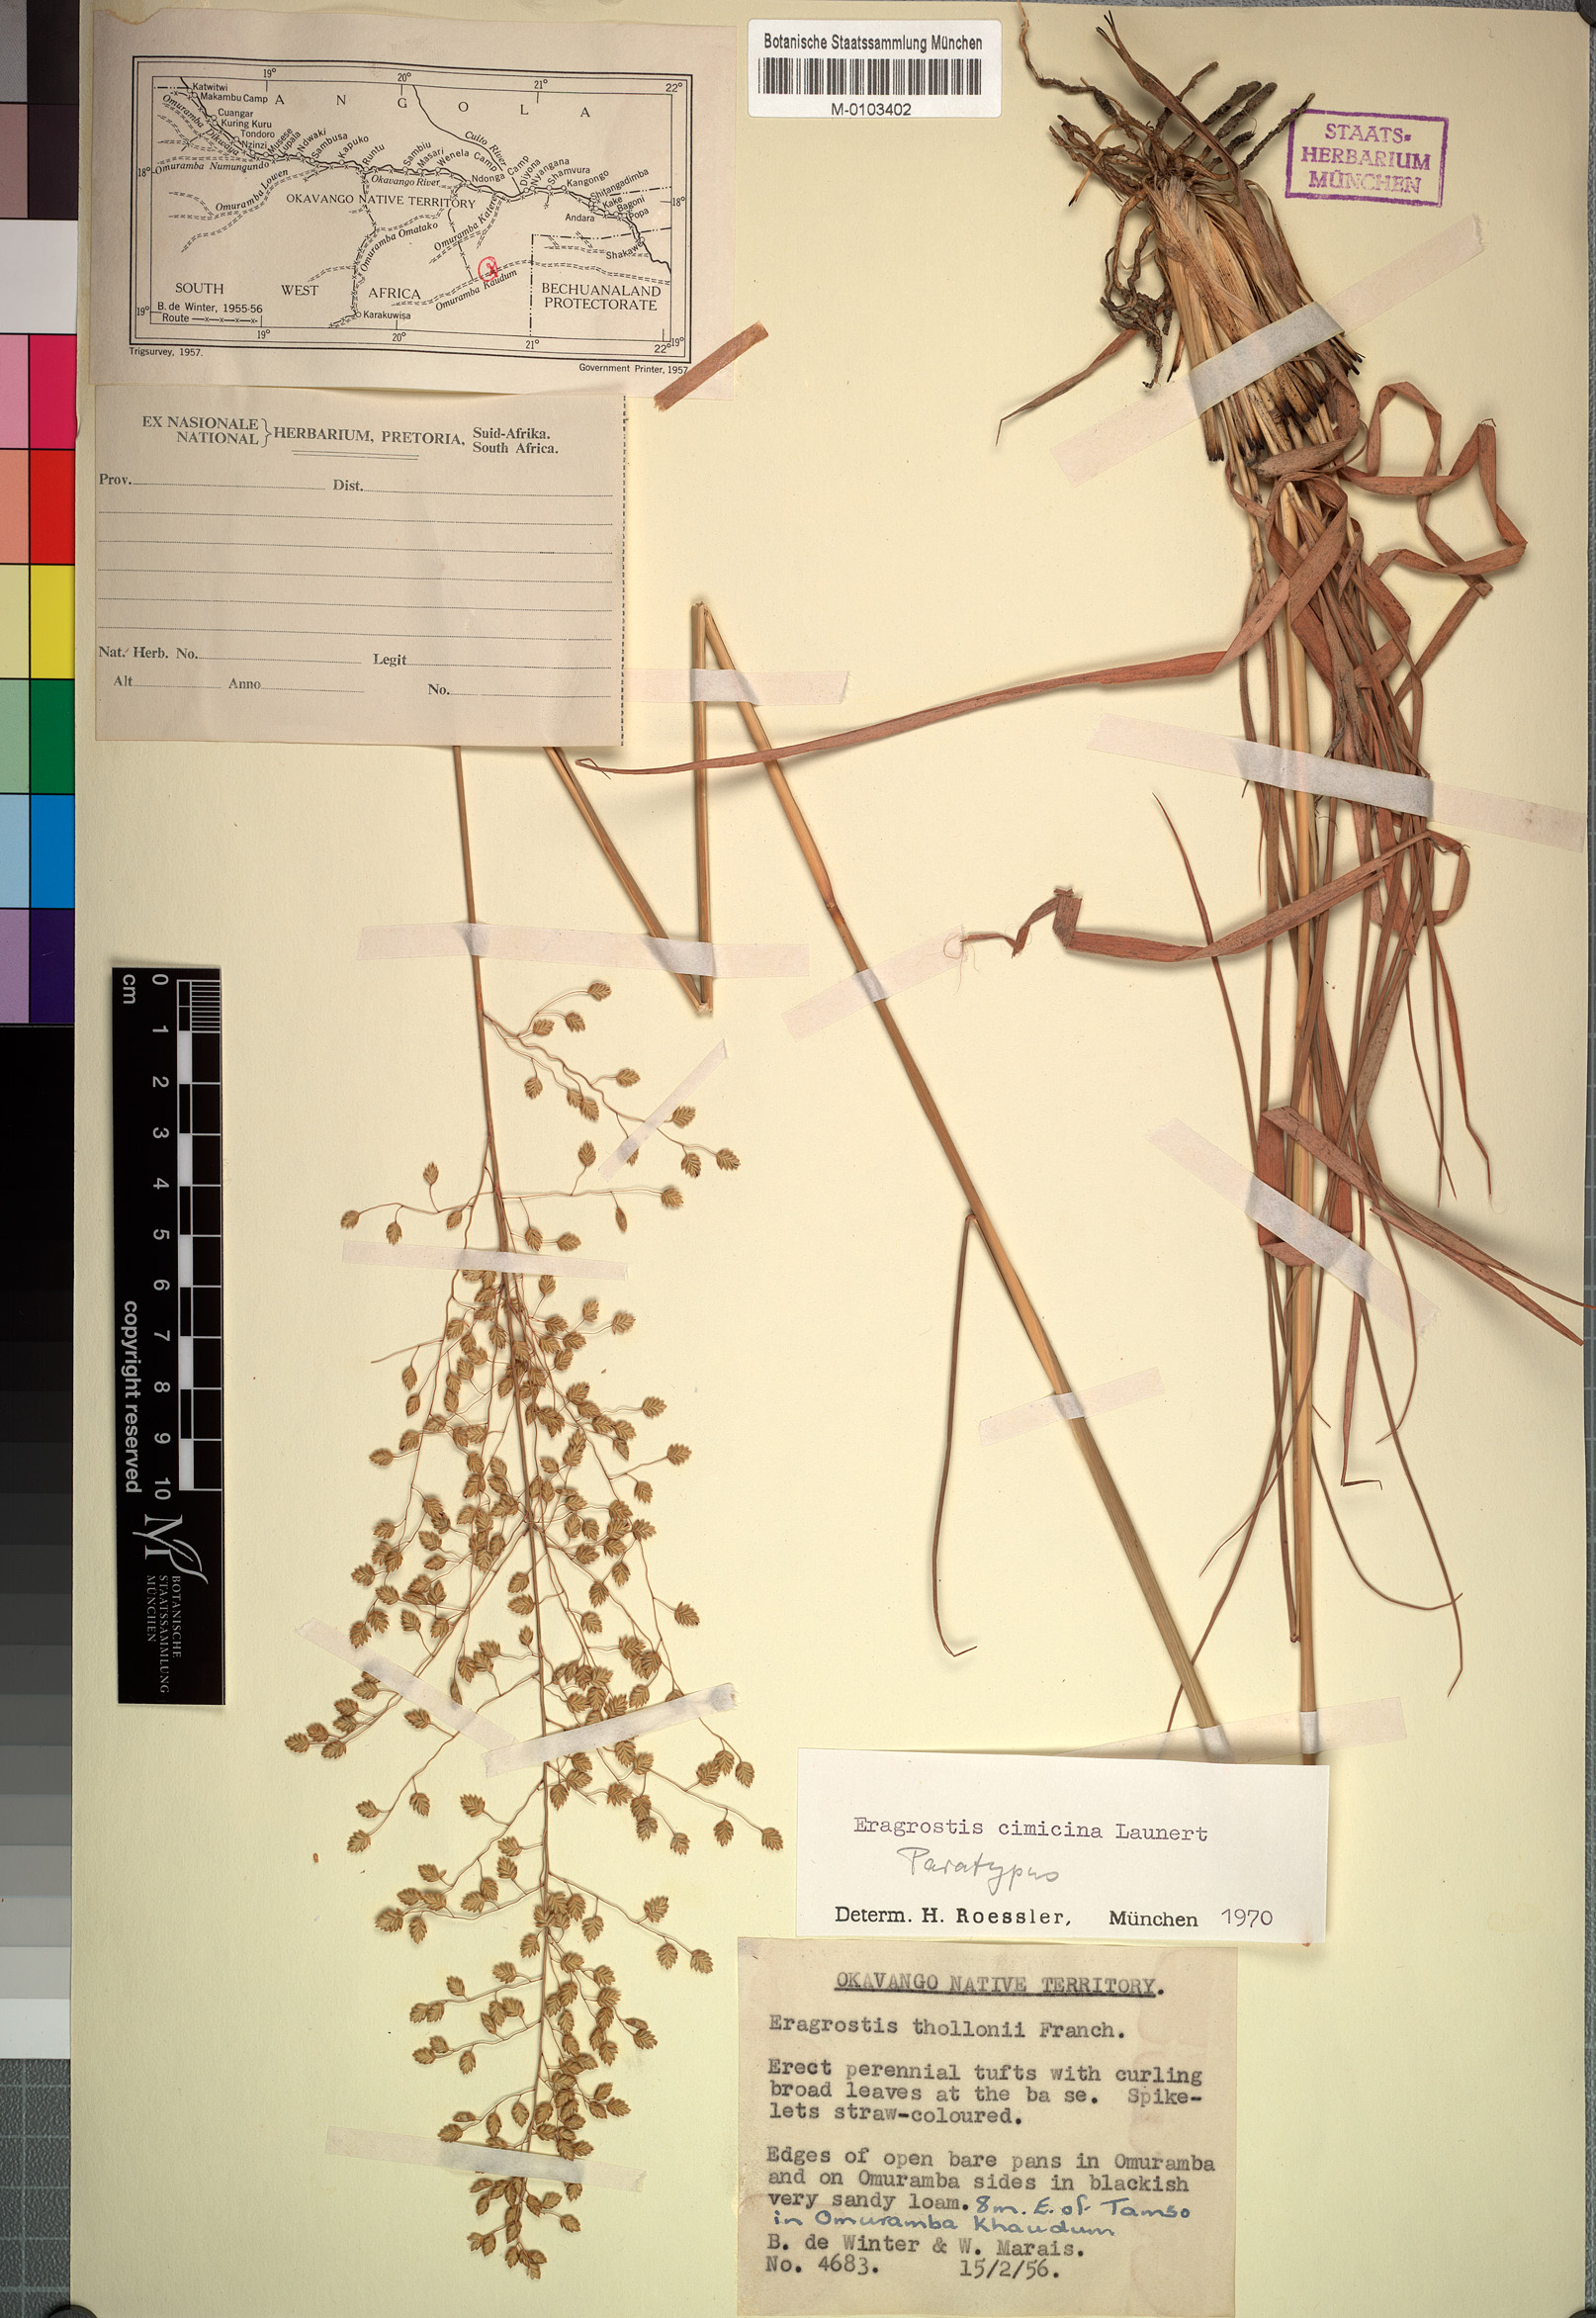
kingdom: Plantae
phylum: Tracheophyta
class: Liliopsida
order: Poales
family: Poaceae
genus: Eragrostis
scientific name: Eragrostis cimicina
